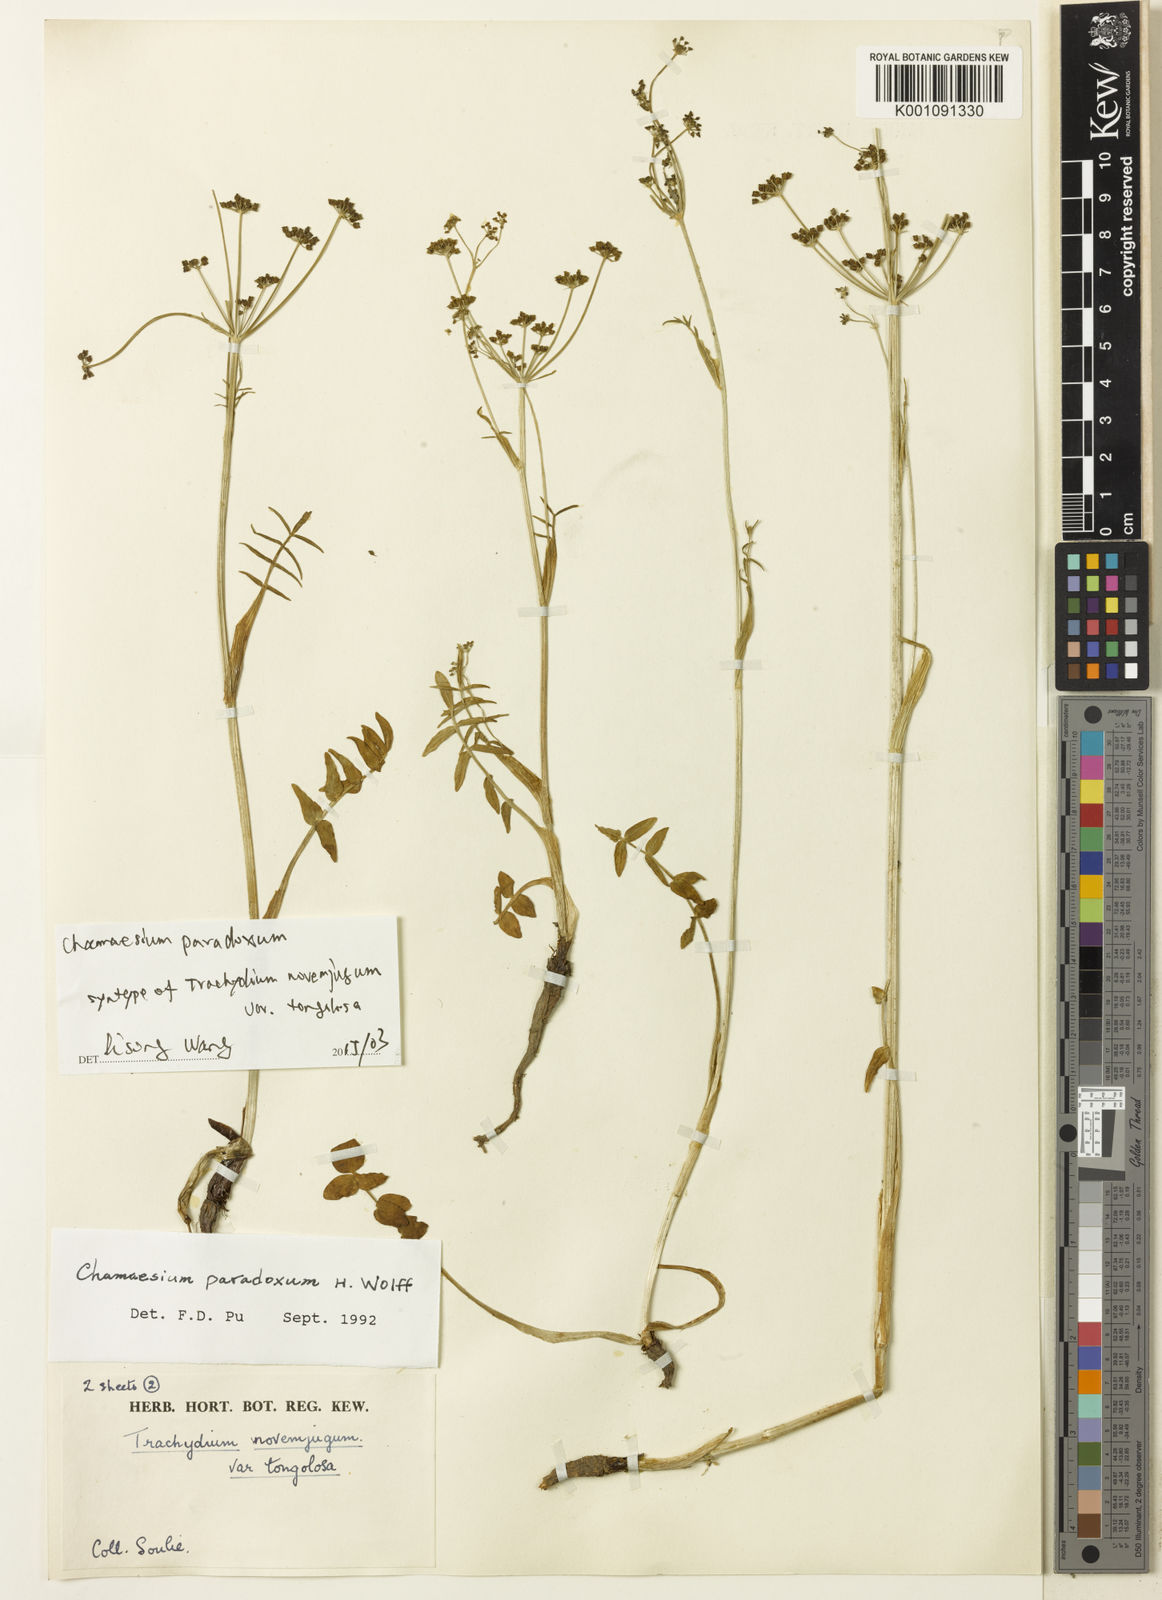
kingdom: Plantae
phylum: Tracheophyta
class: Magnoliopsida
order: Apiales
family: Apiaceae
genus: Chamaesium
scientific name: Chamaesium paradoxum
